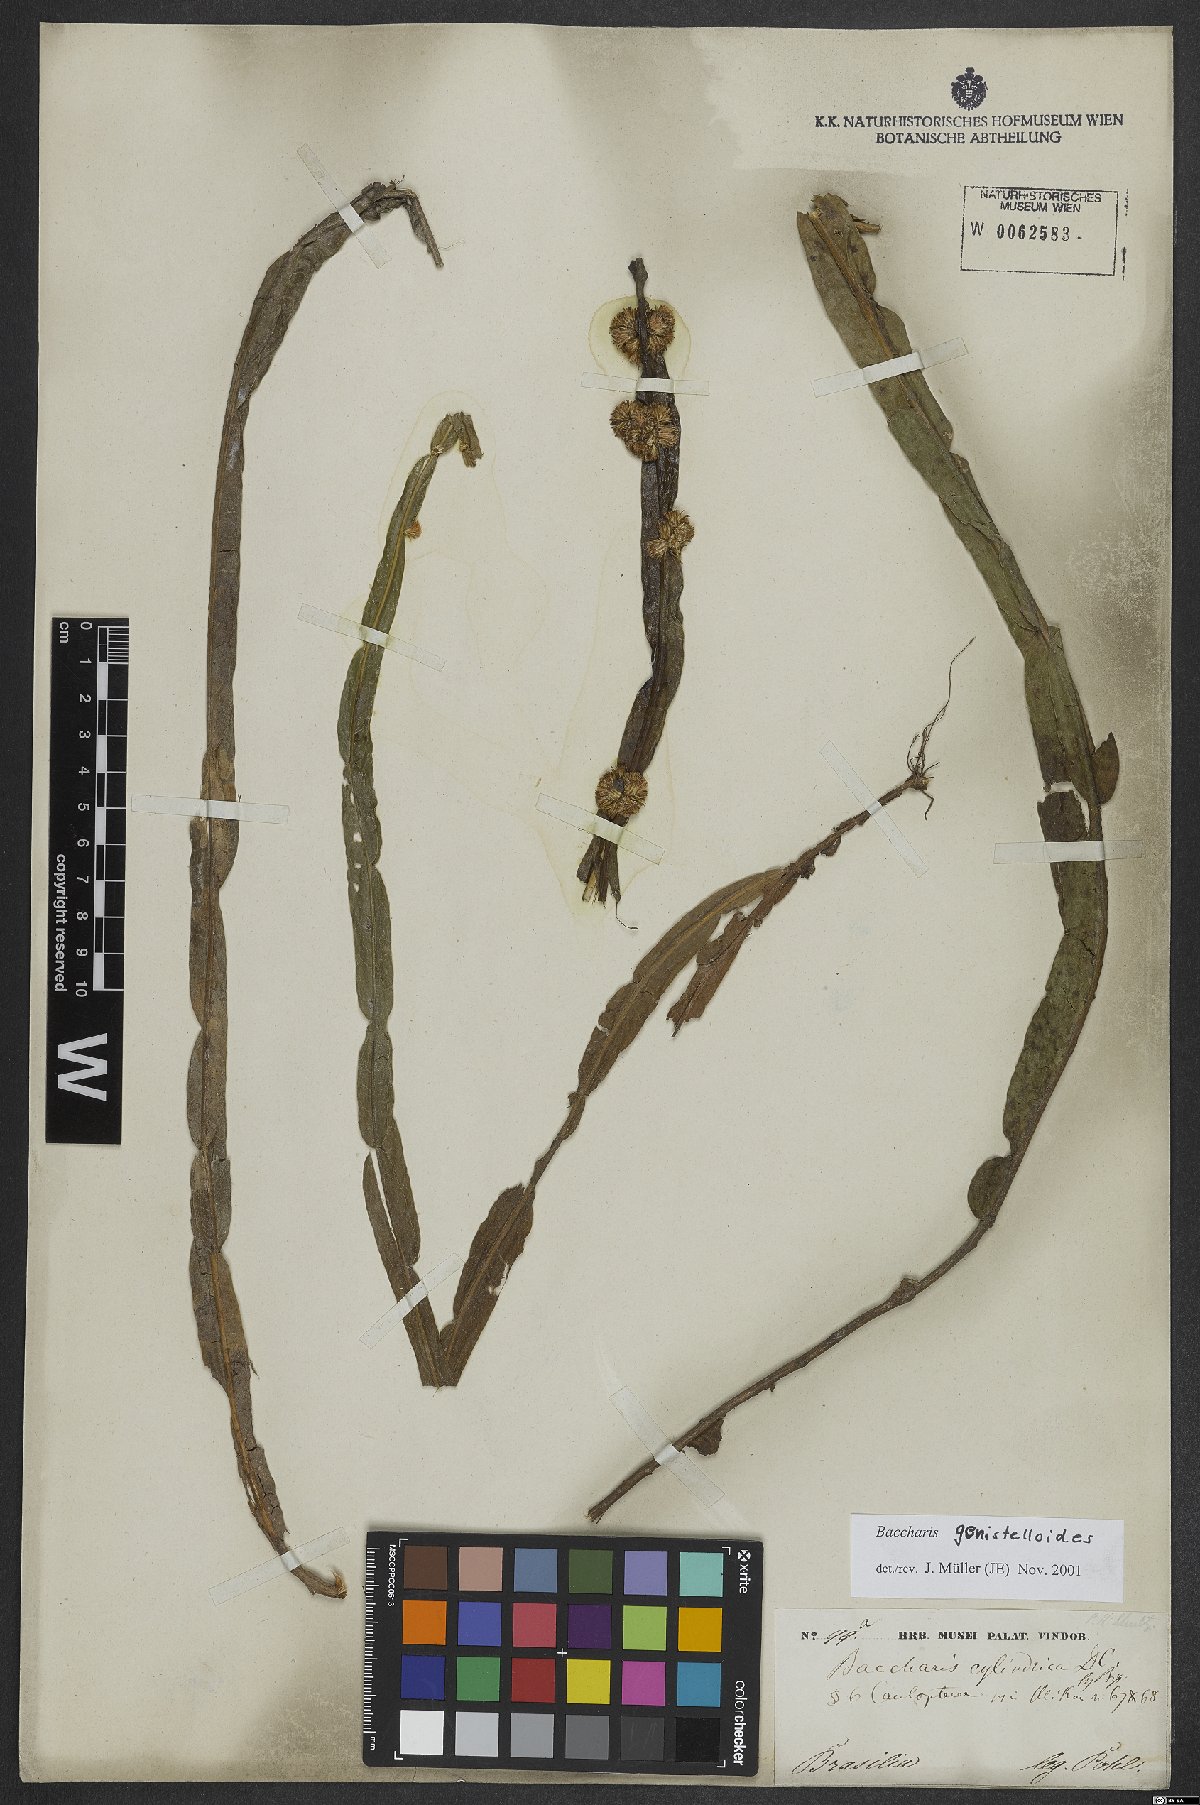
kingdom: Plantae
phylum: Tracheophyta
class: Magnoliopsida
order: Asterales
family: Asteraceae
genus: Baccharis
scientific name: Baccharis genistelloides
